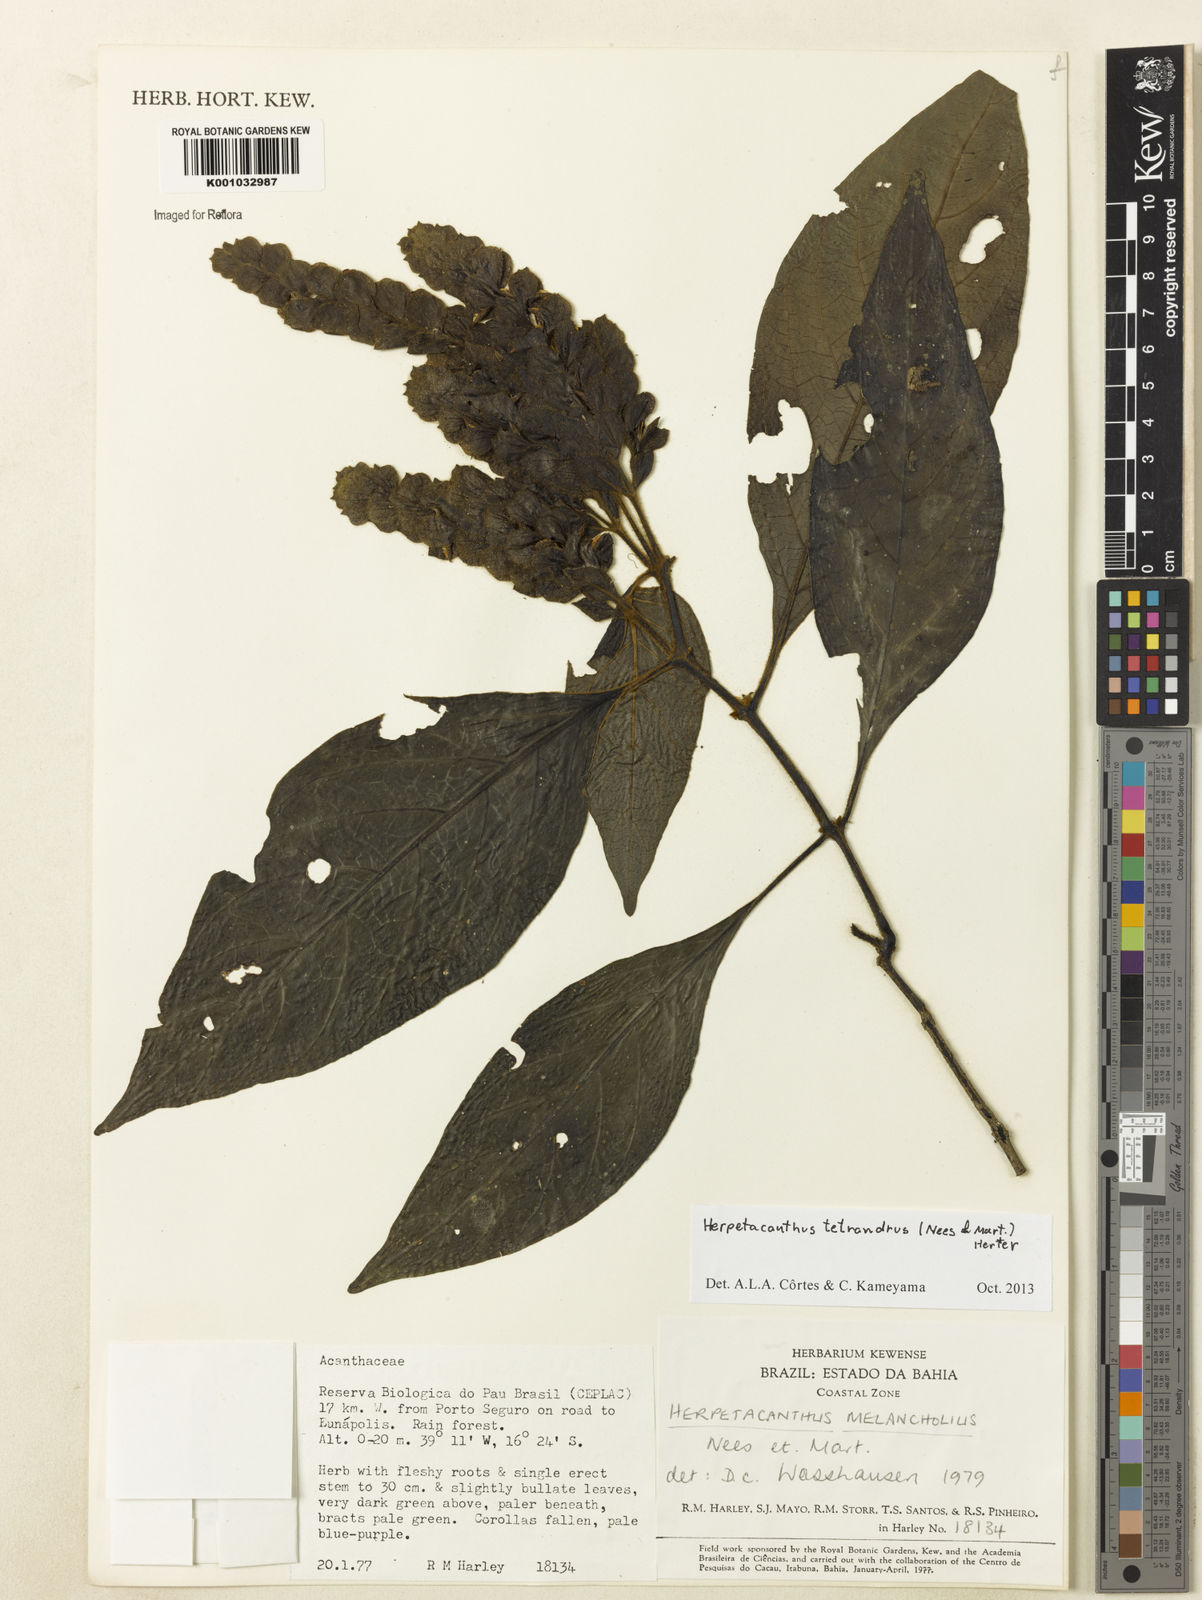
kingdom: Plantae
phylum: Tracheophyta
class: Magnoliopsida
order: Lamiales
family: Acanthaceae
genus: Herpetacanthus
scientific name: Herpetacanthus tetrandrus
